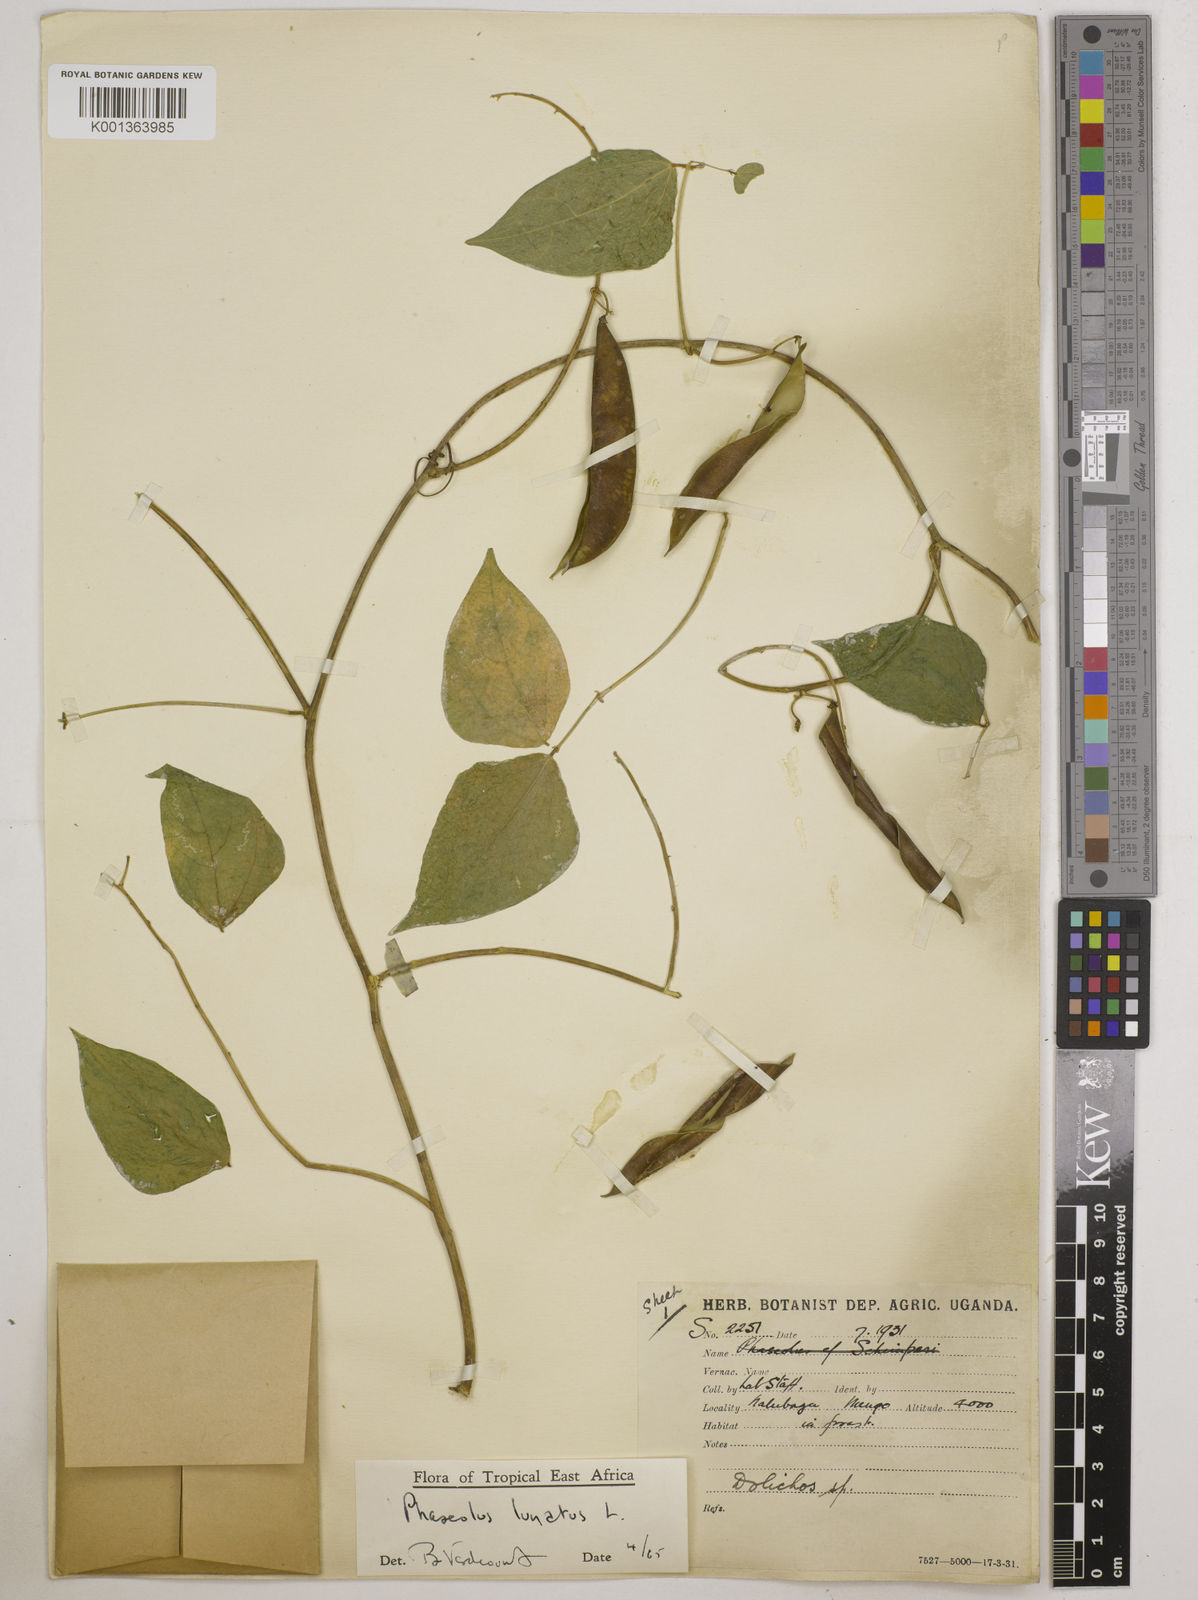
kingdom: Plantae
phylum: Tracheophyta
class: Magnoliopsida
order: Fabales
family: Fabaceae
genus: Phaseolus
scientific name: Phaseolus lunatus
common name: Sieva bean
